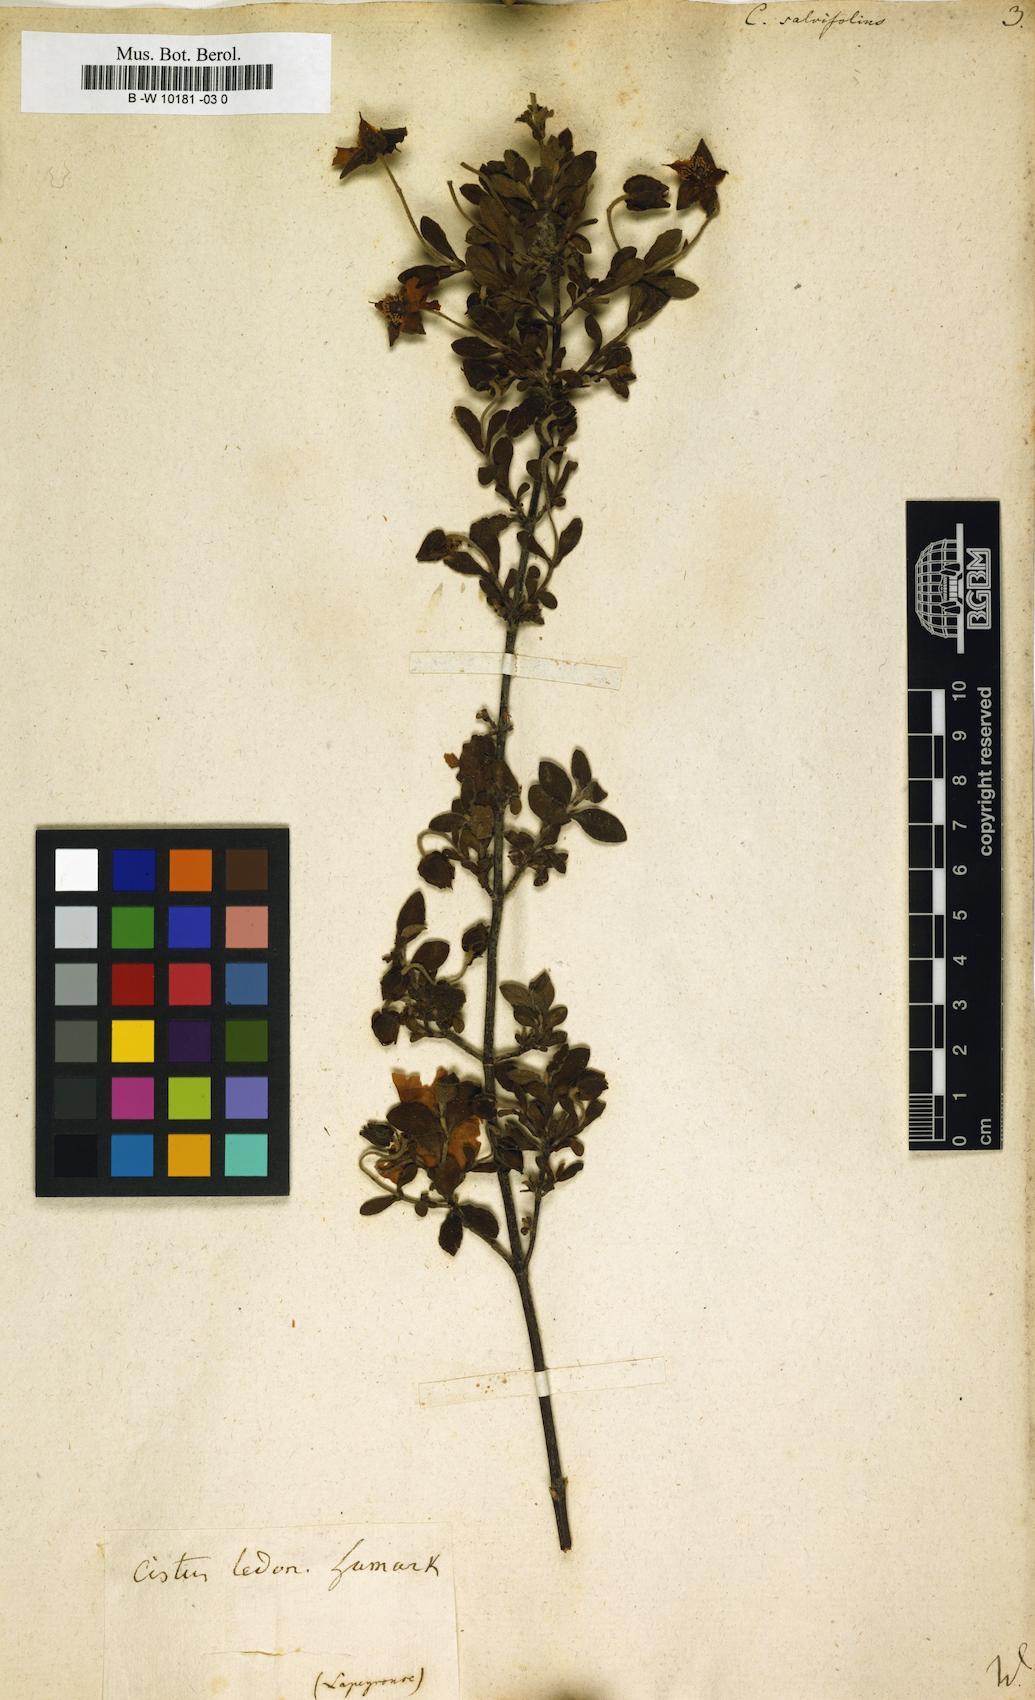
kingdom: Plantae
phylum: Tracheophyta
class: Magnoliopsida
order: Malvales
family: Cistaceae
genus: Cistus
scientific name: Cistus salviifolius
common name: Salvia cistus
